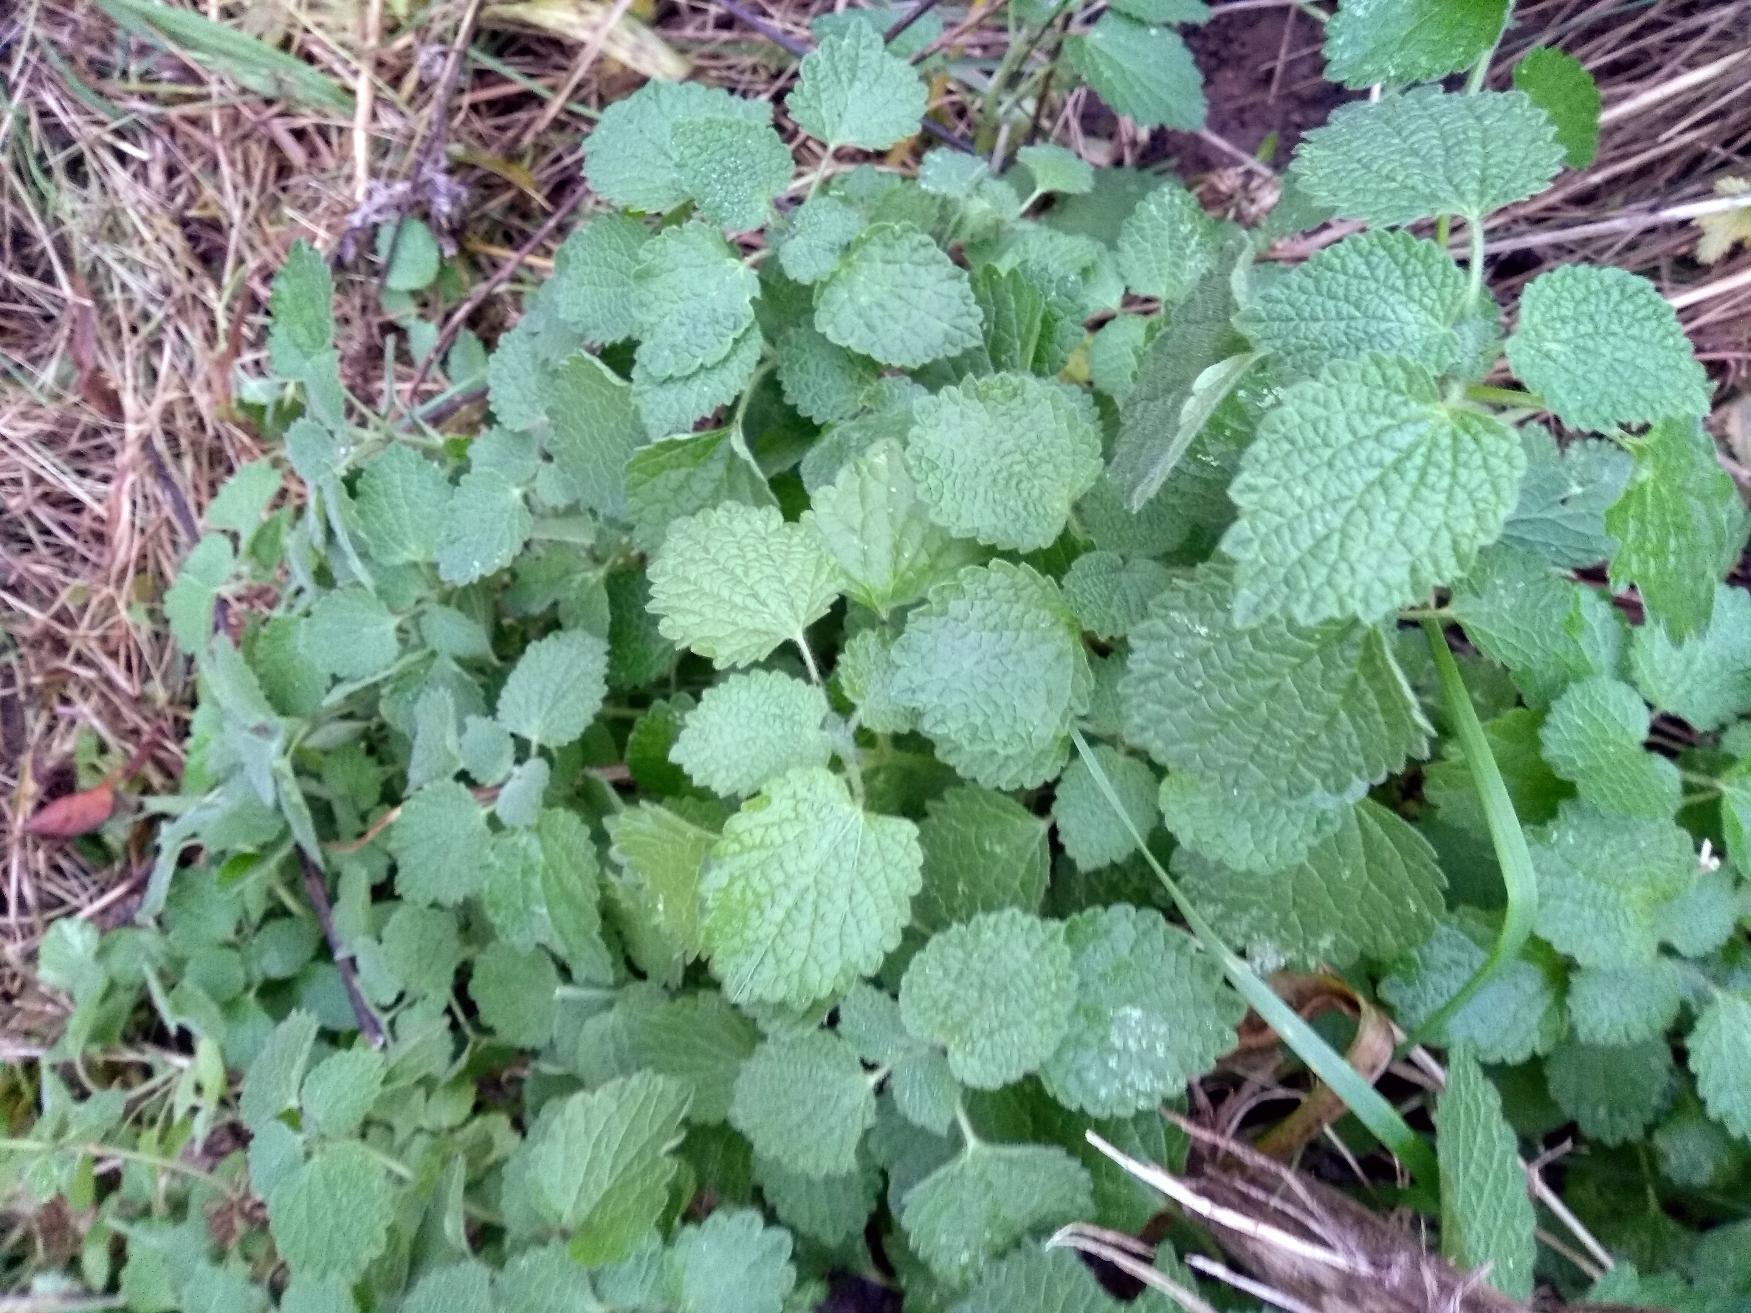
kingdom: Plantae
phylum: Tracheophyta
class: Magnoliopsida
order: Lamiales
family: Lamiaceae
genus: Ballota
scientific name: Ballota nigra
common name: Tandbæger
